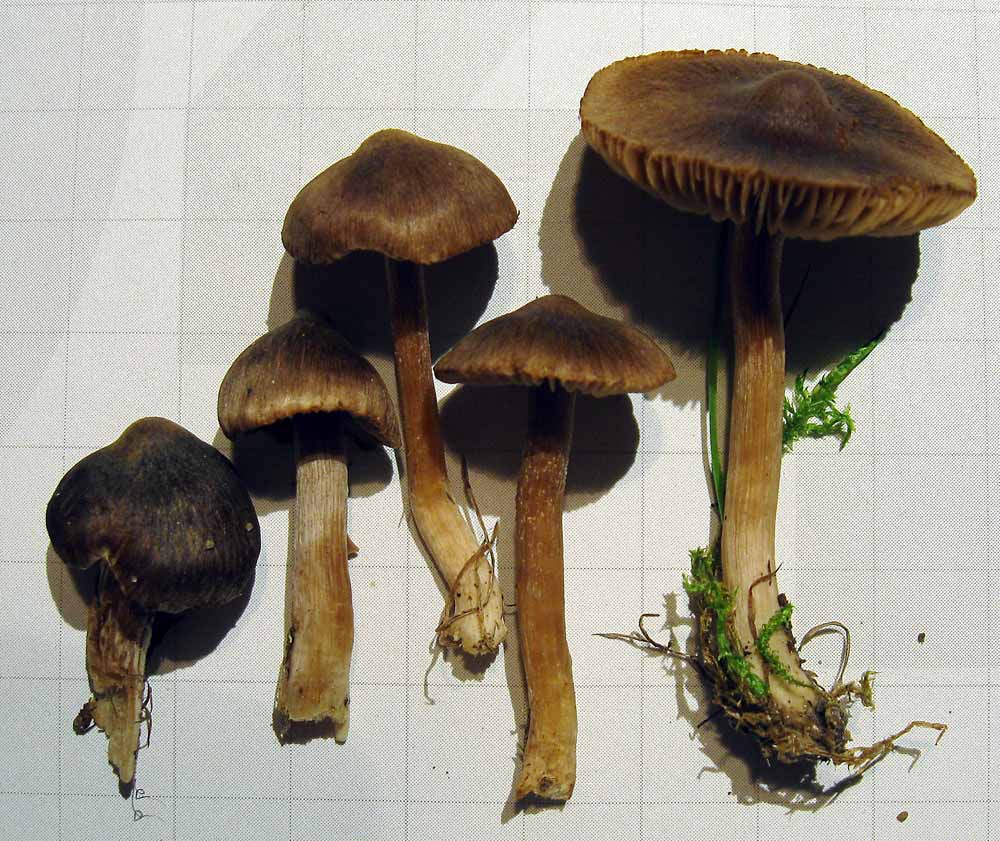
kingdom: Fungi
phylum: Basidiomycota
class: Agaricomycetes
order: Agaricales
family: Inocybaceae
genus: Inocybe
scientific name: Inocybe nitidiuscula
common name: skinnende trævlhat
